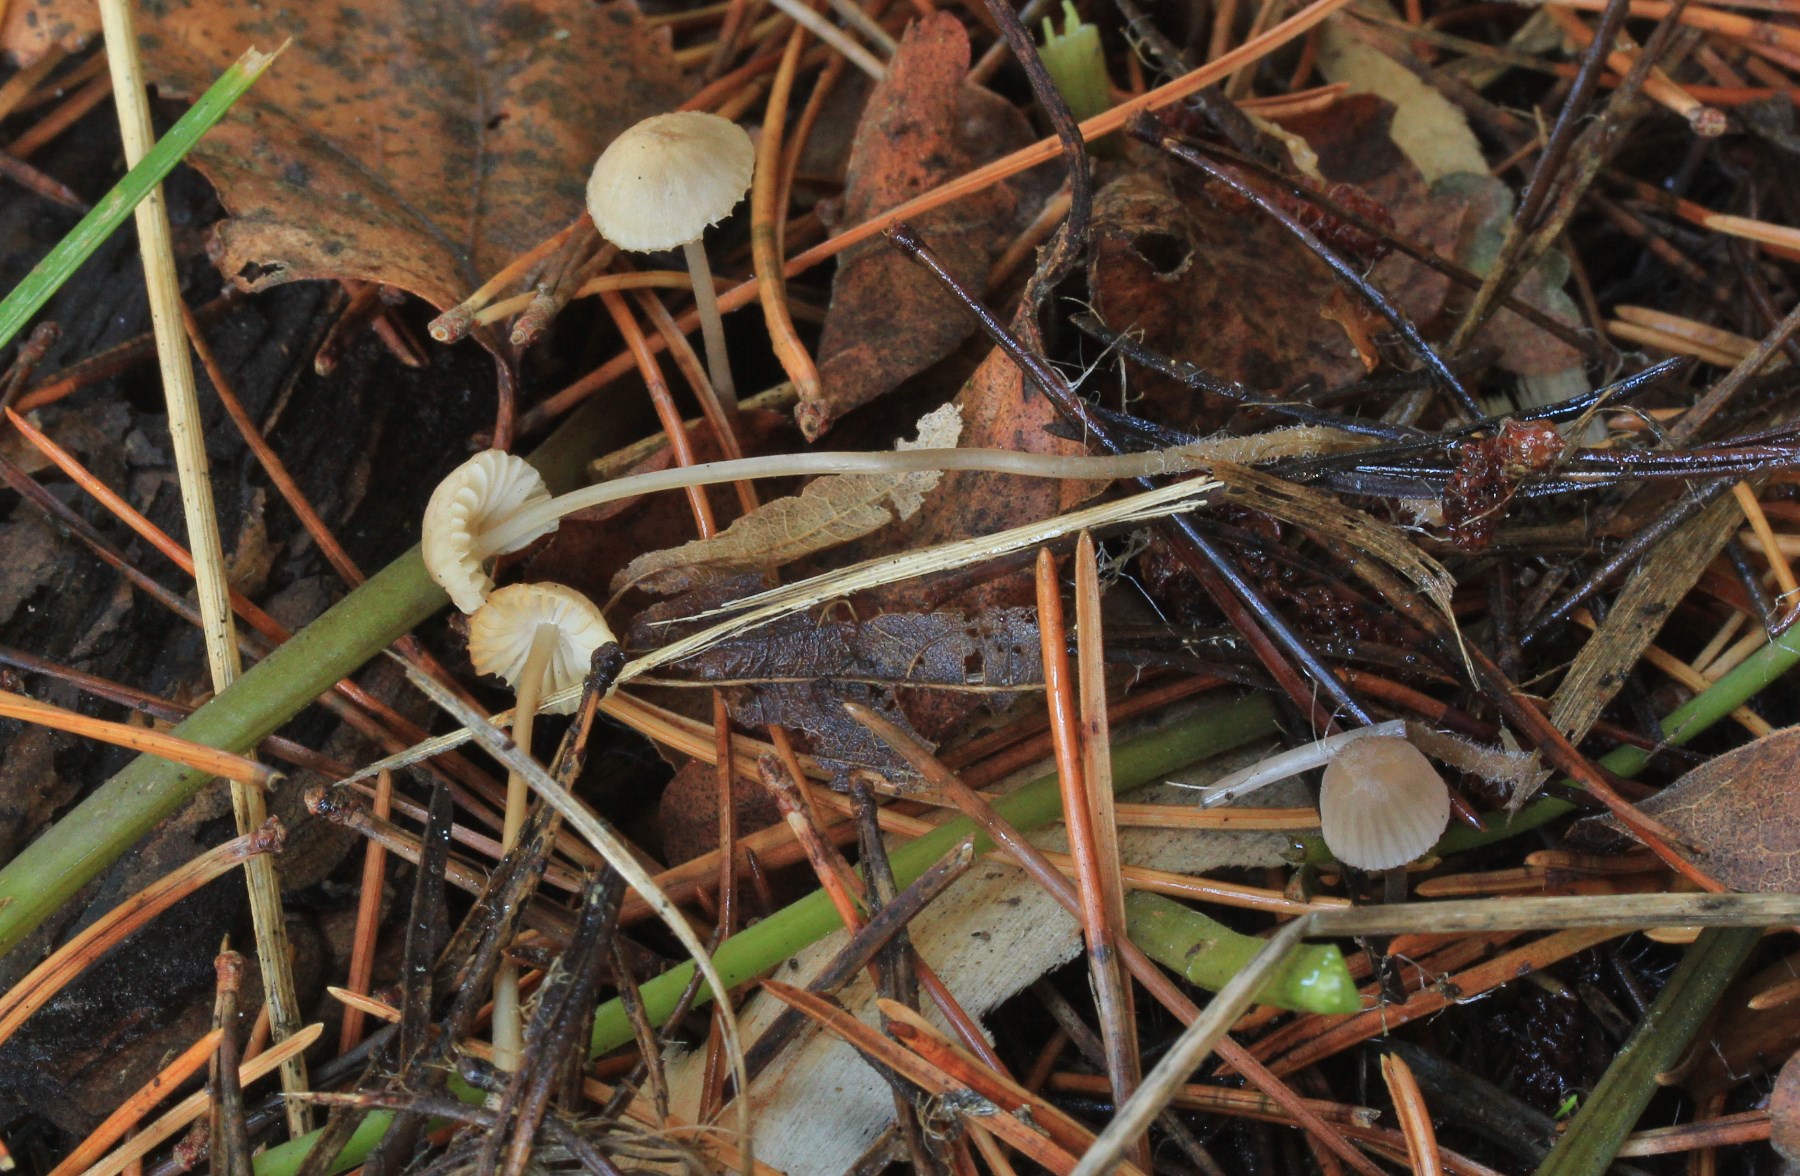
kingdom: Fungi
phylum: Basidiomycota
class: Agaricomycetes
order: Agaricales
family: Mycenaceae
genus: Mycena
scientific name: Mycena capillaripes
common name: nåle-huesvamp
